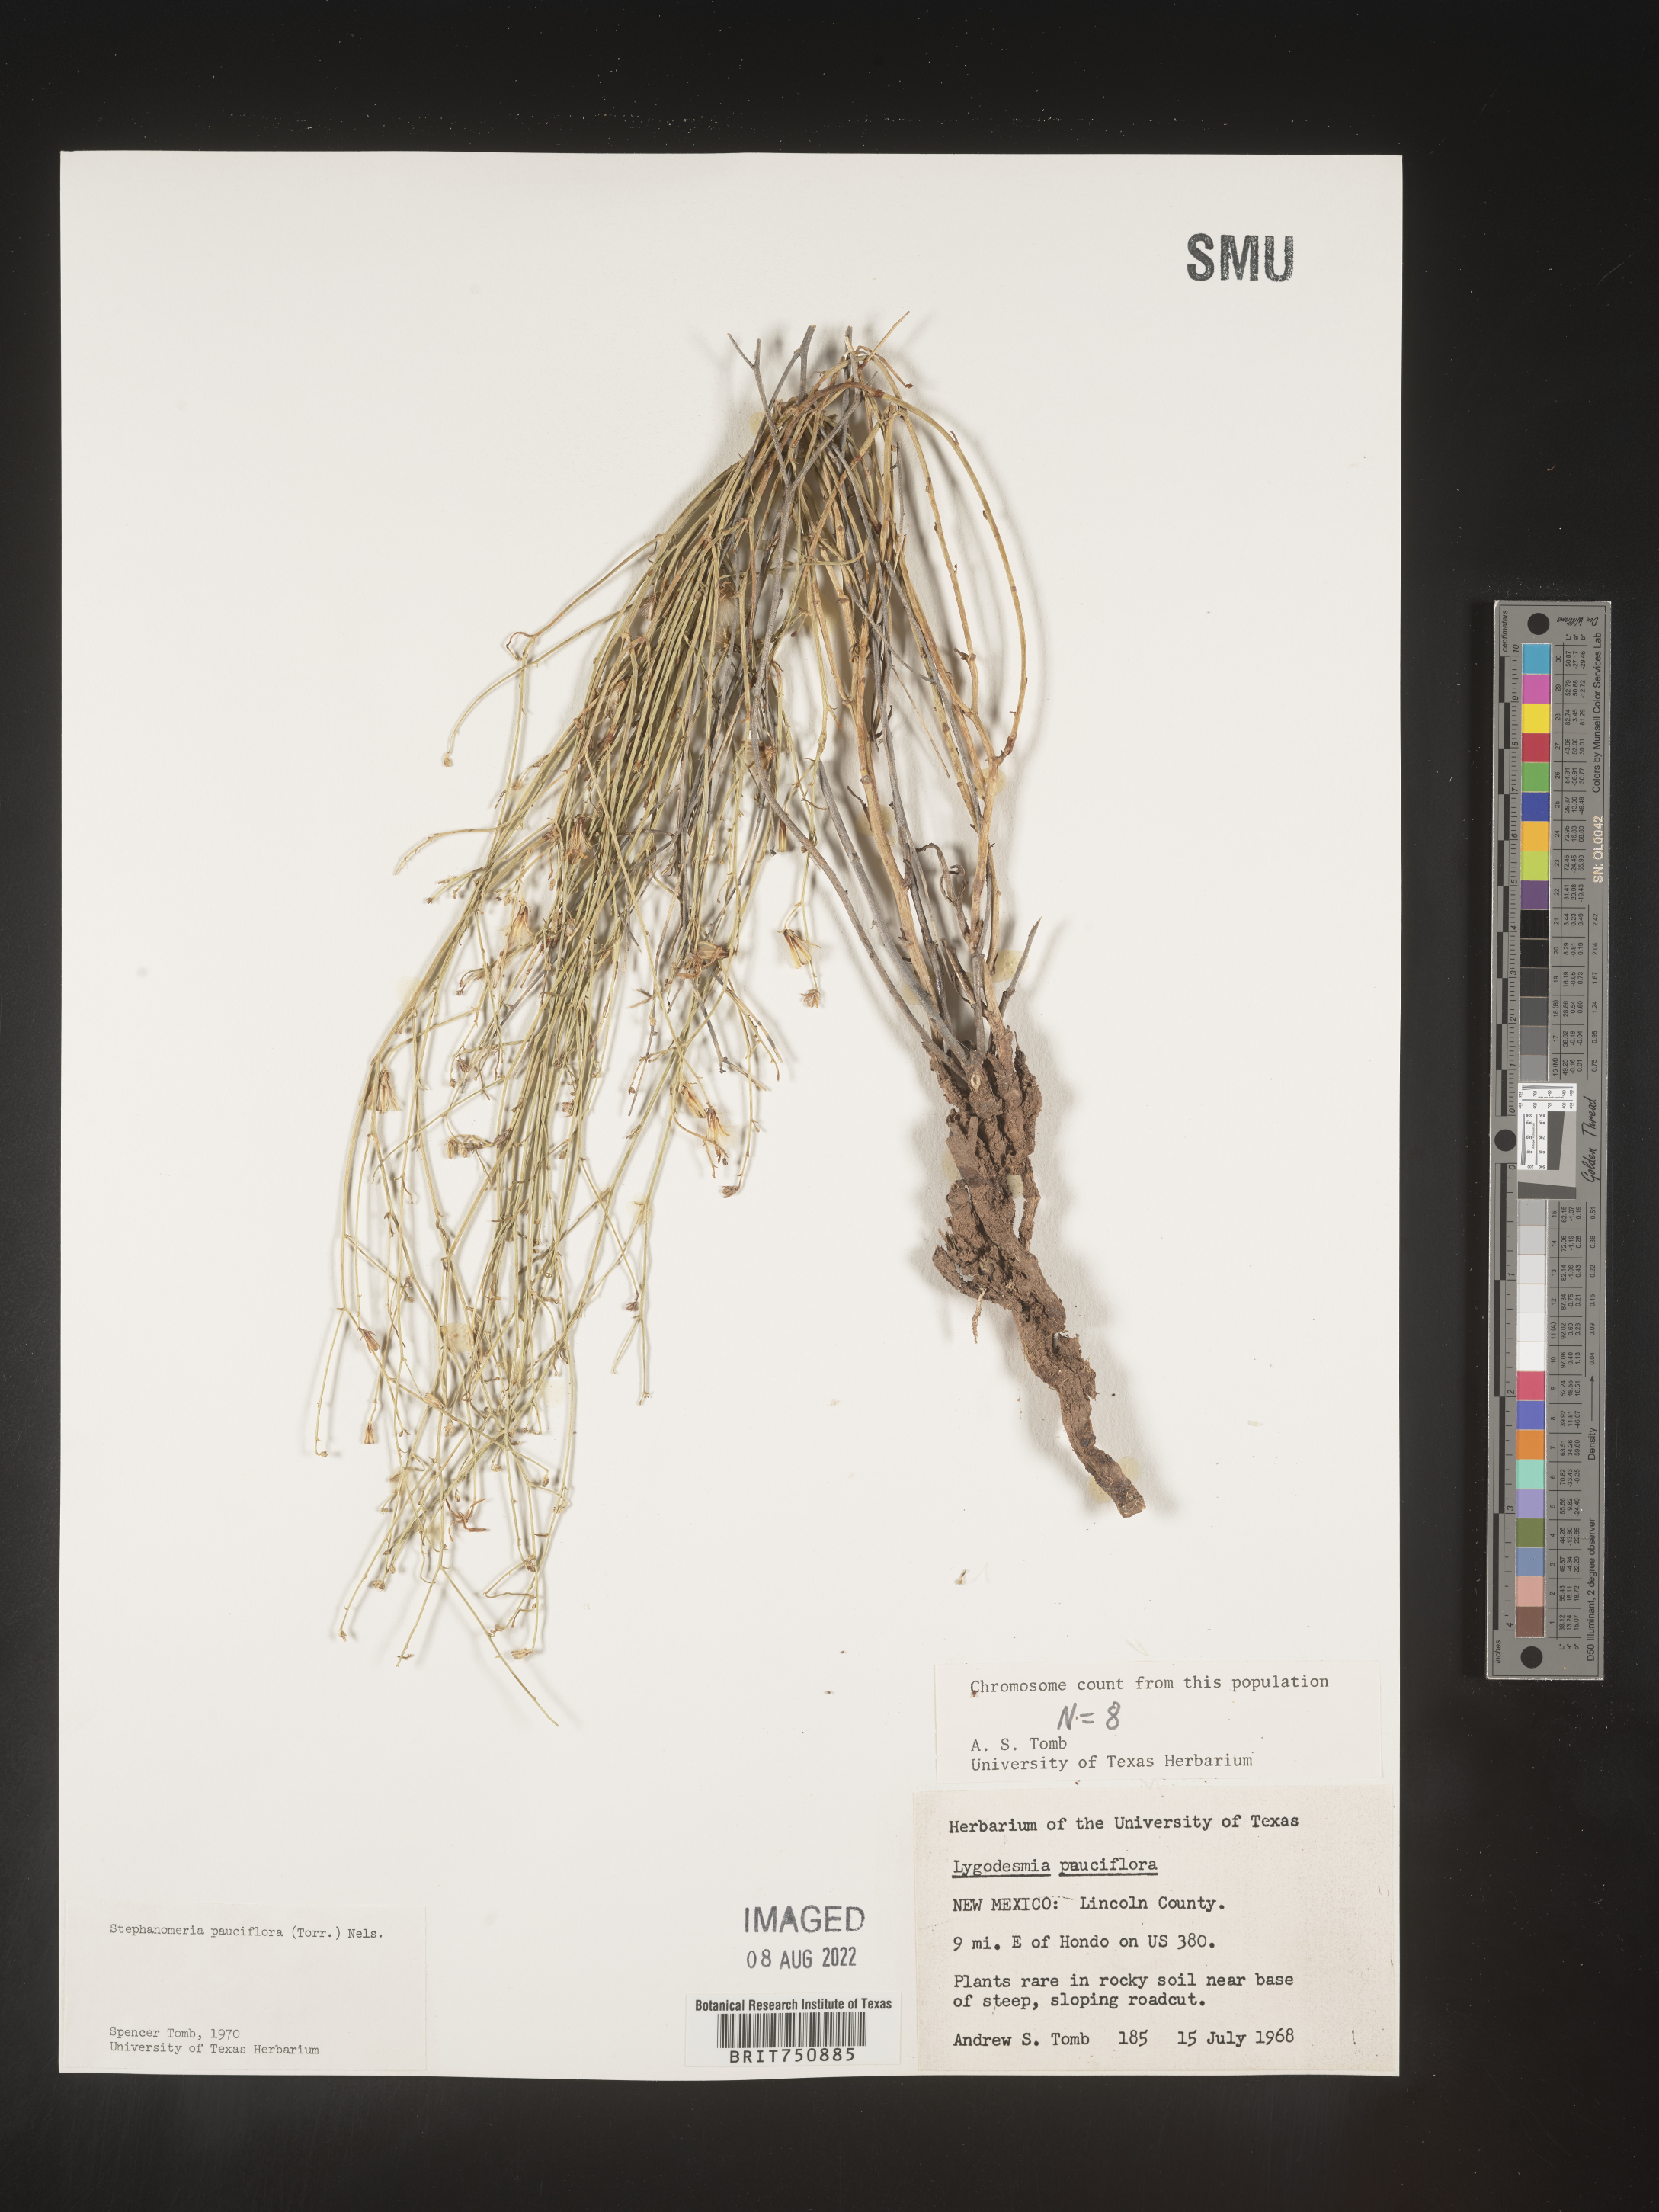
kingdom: Plantae
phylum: Tracheophyta
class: Magnoliopsida
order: Asterales
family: Asteraceae
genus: Stephanomeria
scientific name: Stephanomeria pauciflora
